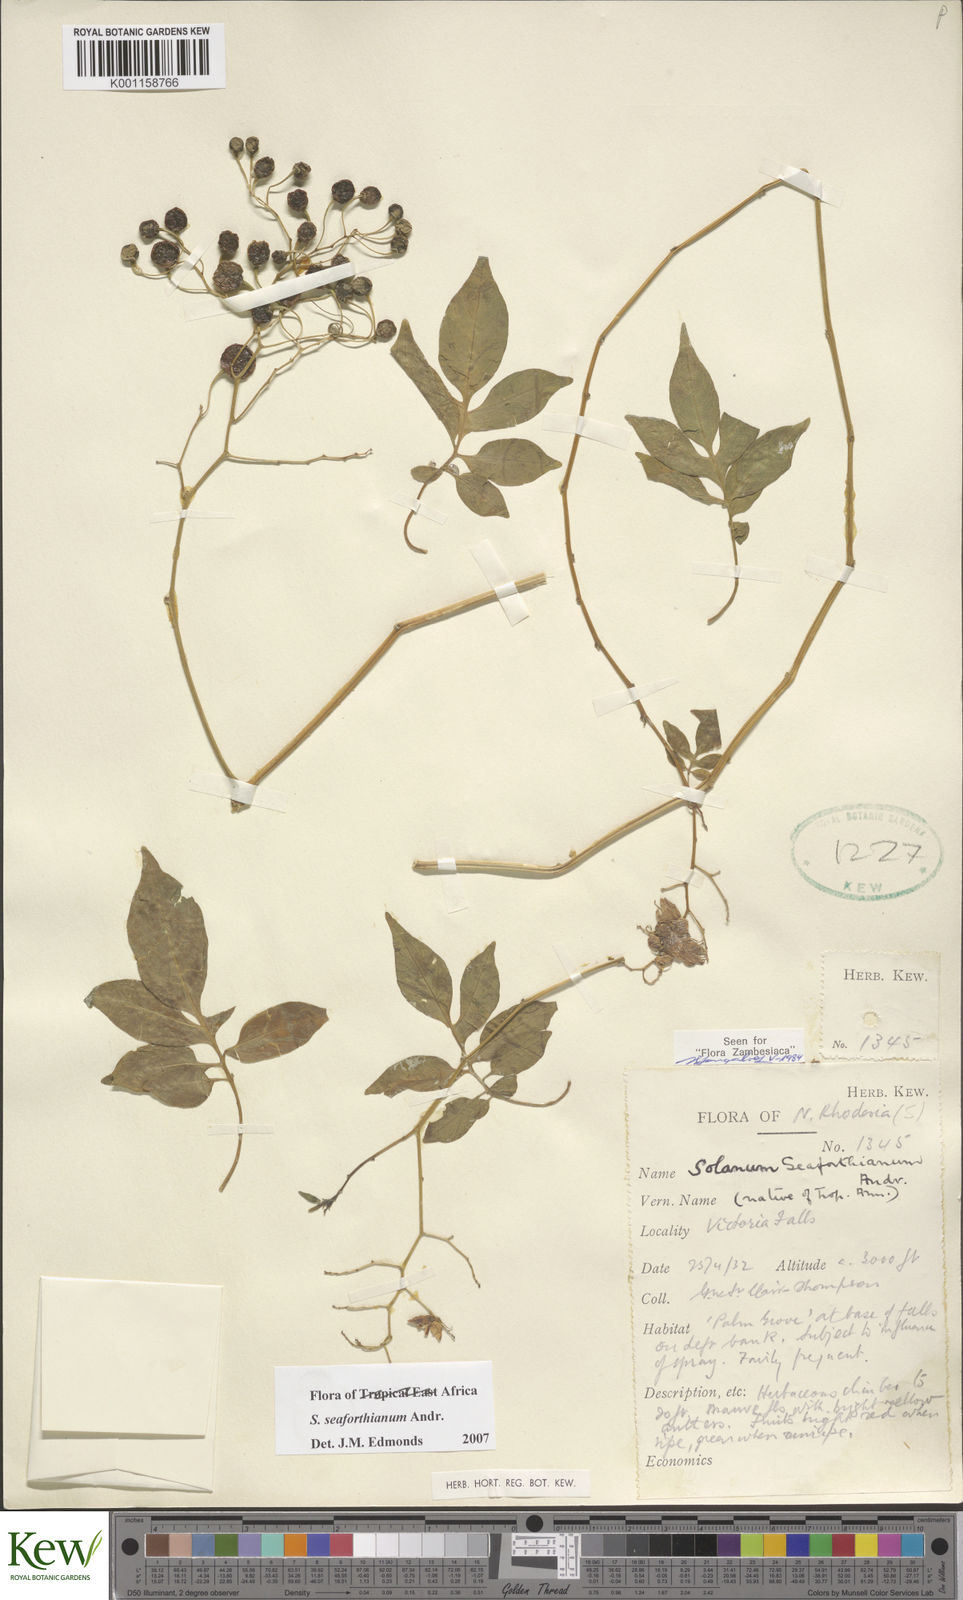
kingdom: Plantae
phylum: Tracheophyta
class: Magnoliopsida
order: Solanales
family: Solanaceae
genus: Solanum
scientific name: Solanum seaforthianum
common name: Brazilian nightshade
